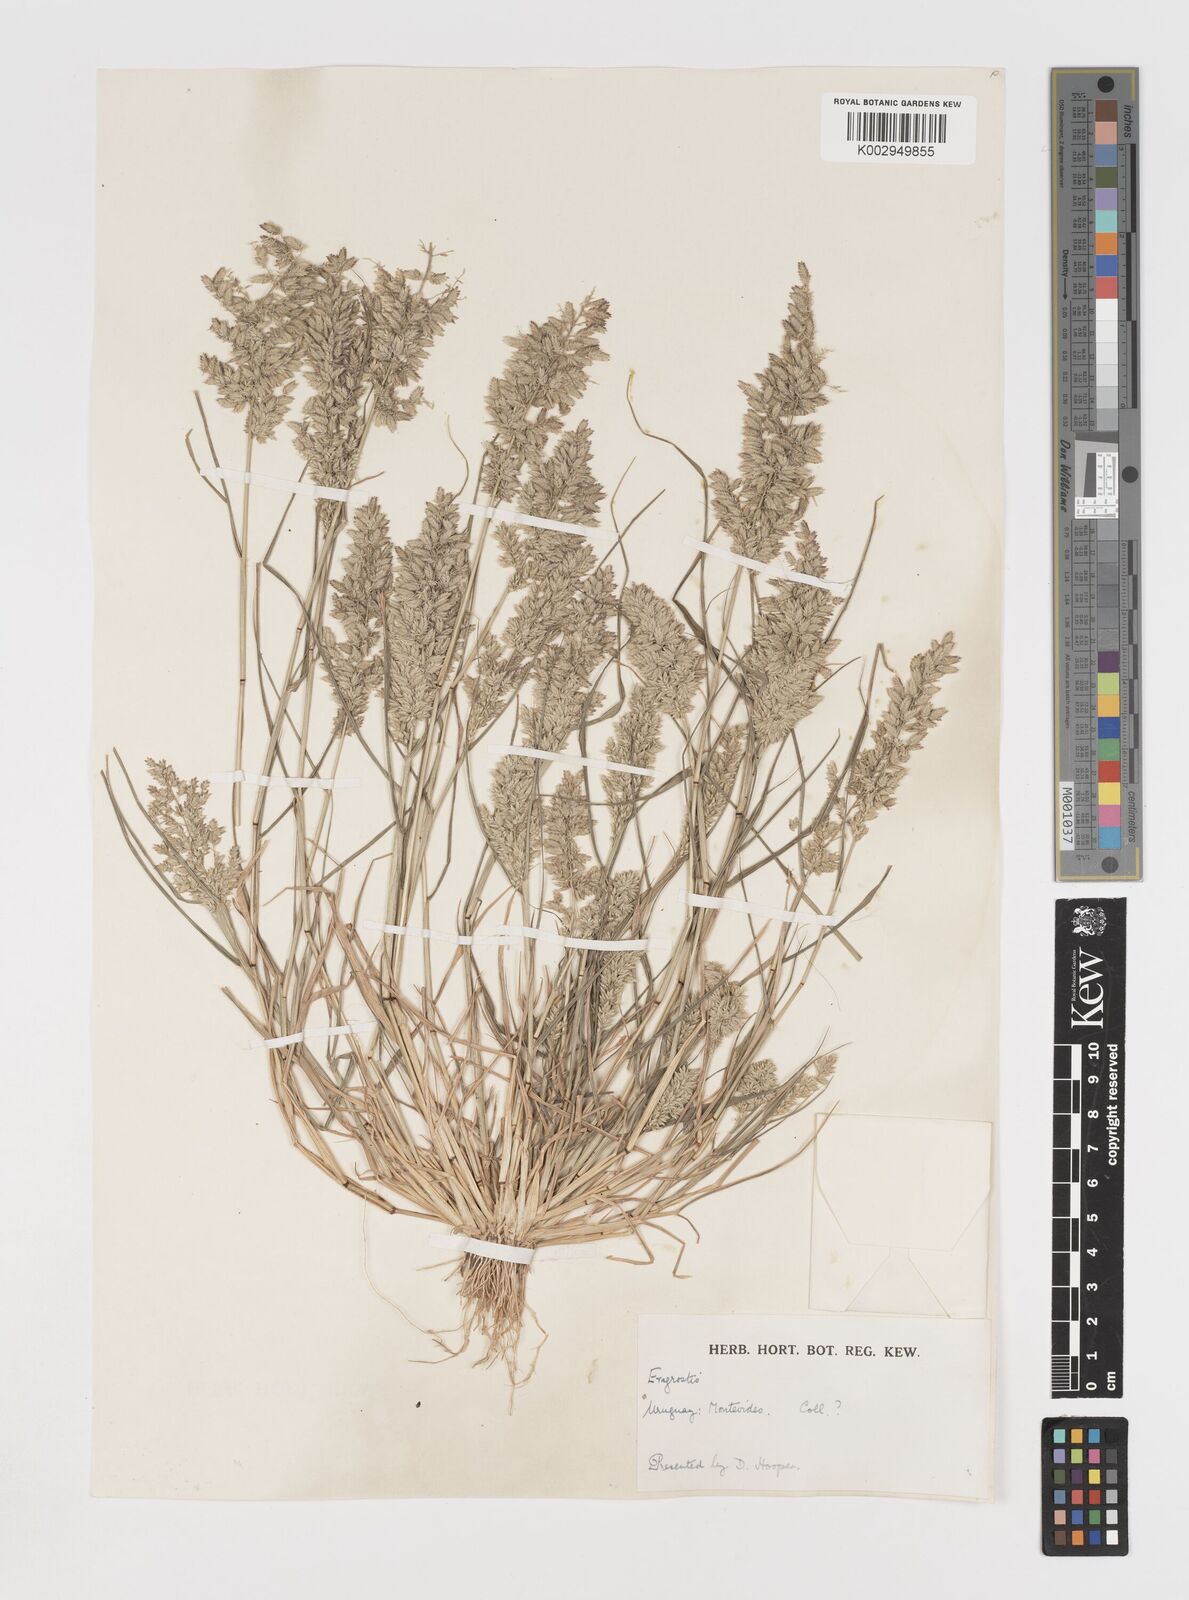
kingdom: Plantae
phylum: Tracheophyta
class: Liliopsida
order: Poales
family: Poaceae
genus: Eragrostis
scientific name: Eragrostis cilianensis
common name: Stinkgrass
